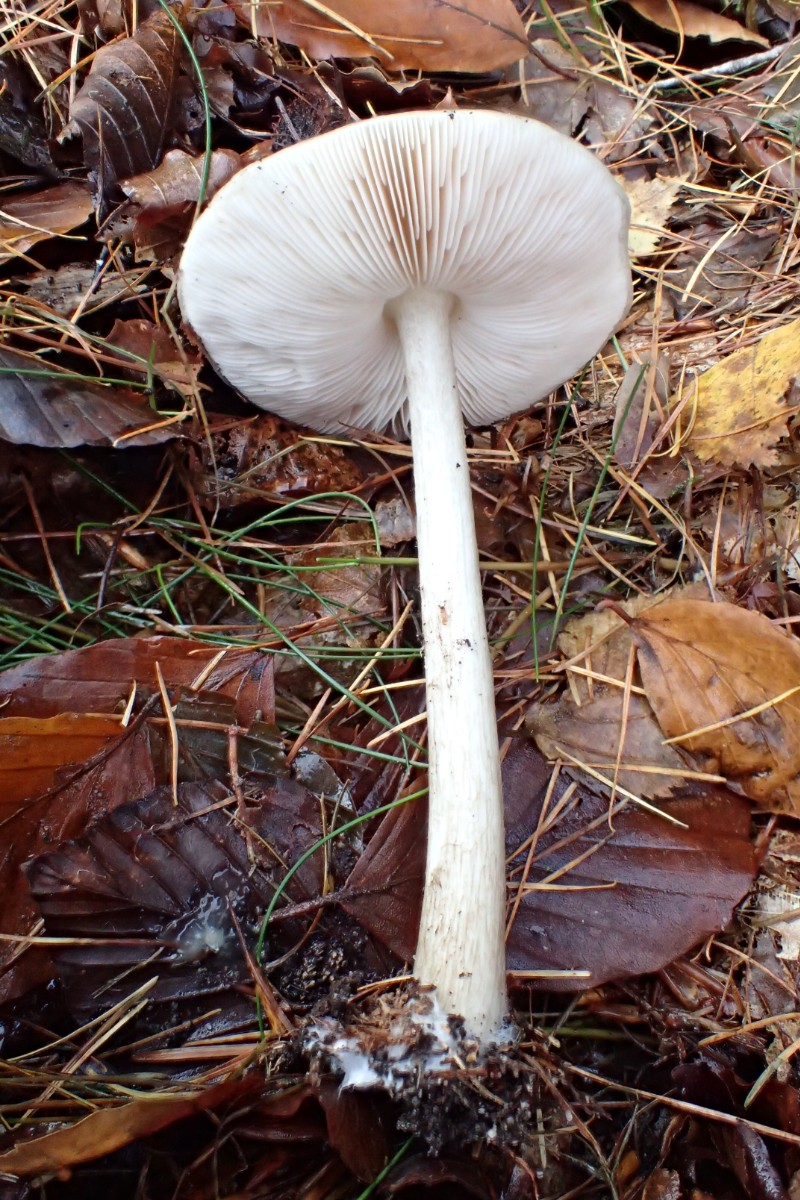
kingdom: Fungi
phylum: Basidiomycota
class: Agaricomycetes
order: Agaricales
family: Pluteaceae
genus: Pluteus
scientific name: Pluteus cervinus
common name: sodfarvet skærmhat
